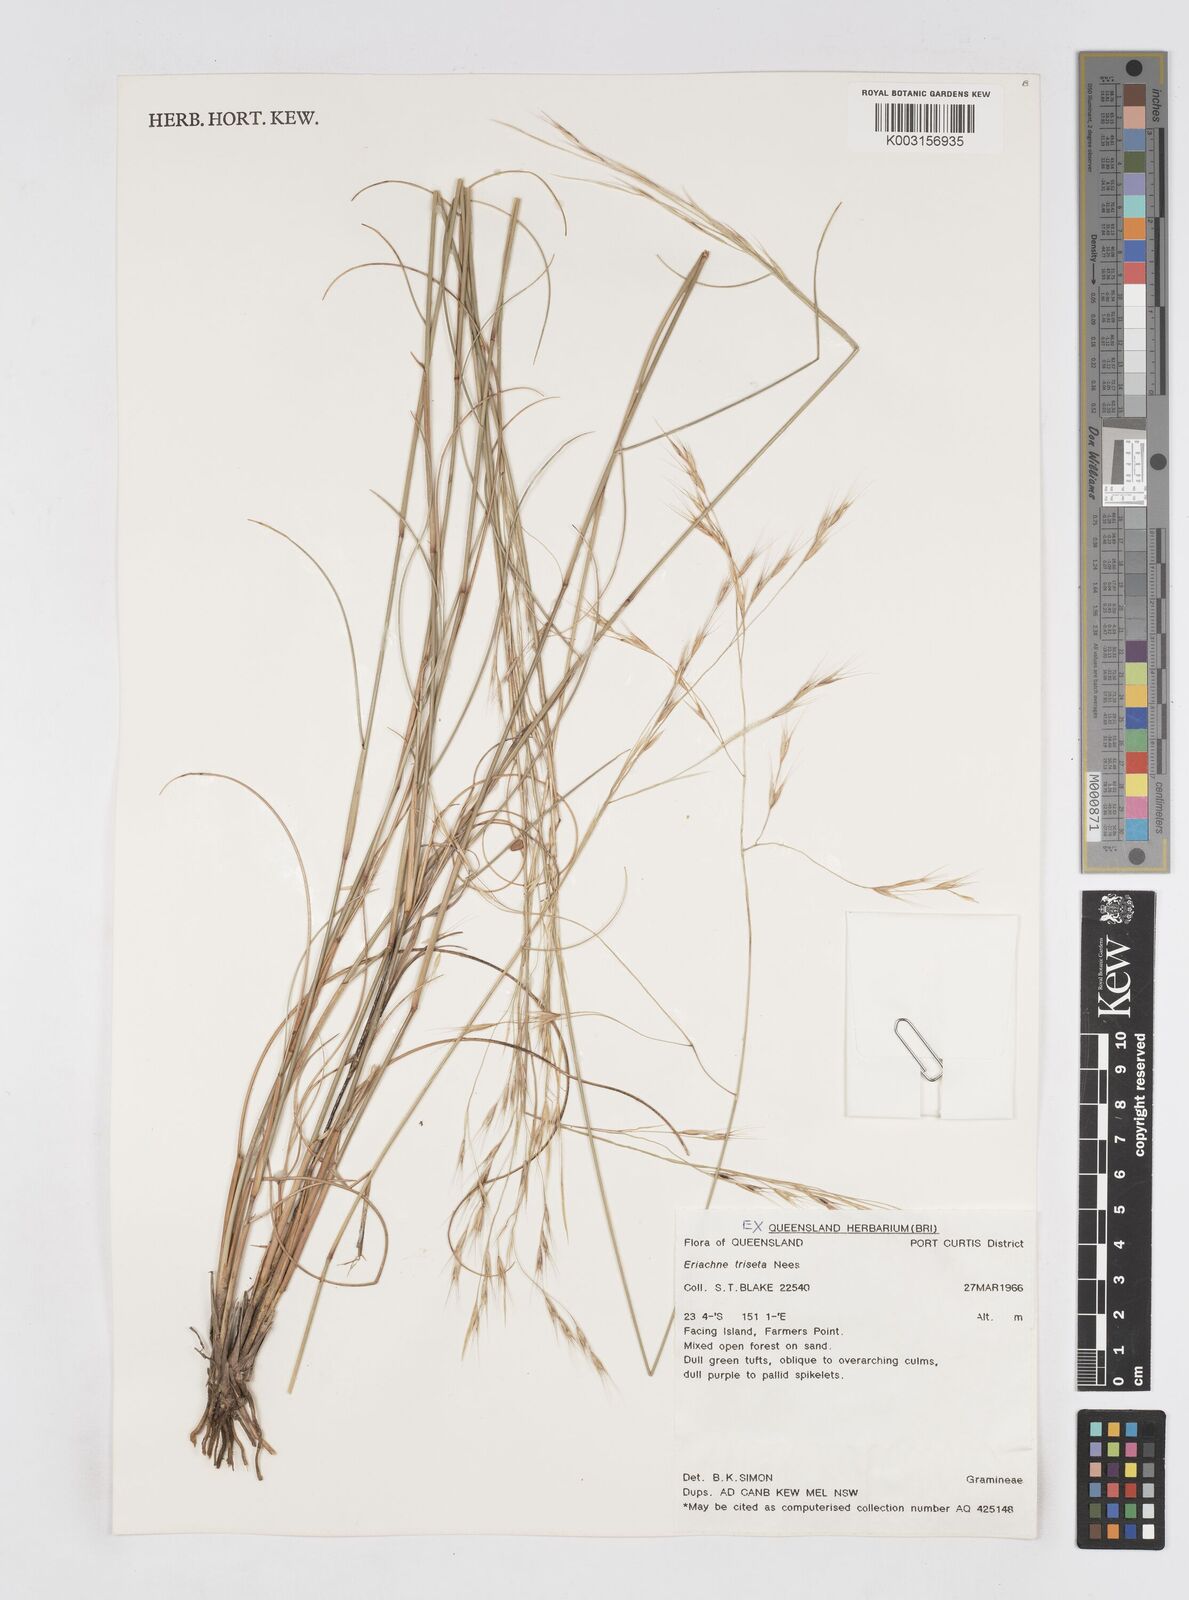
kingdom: Plantae
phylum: Tracheophyta
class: Liliopsida
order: Poales
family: Poaceae
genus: Eriachne
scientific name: Eriachne triseta
